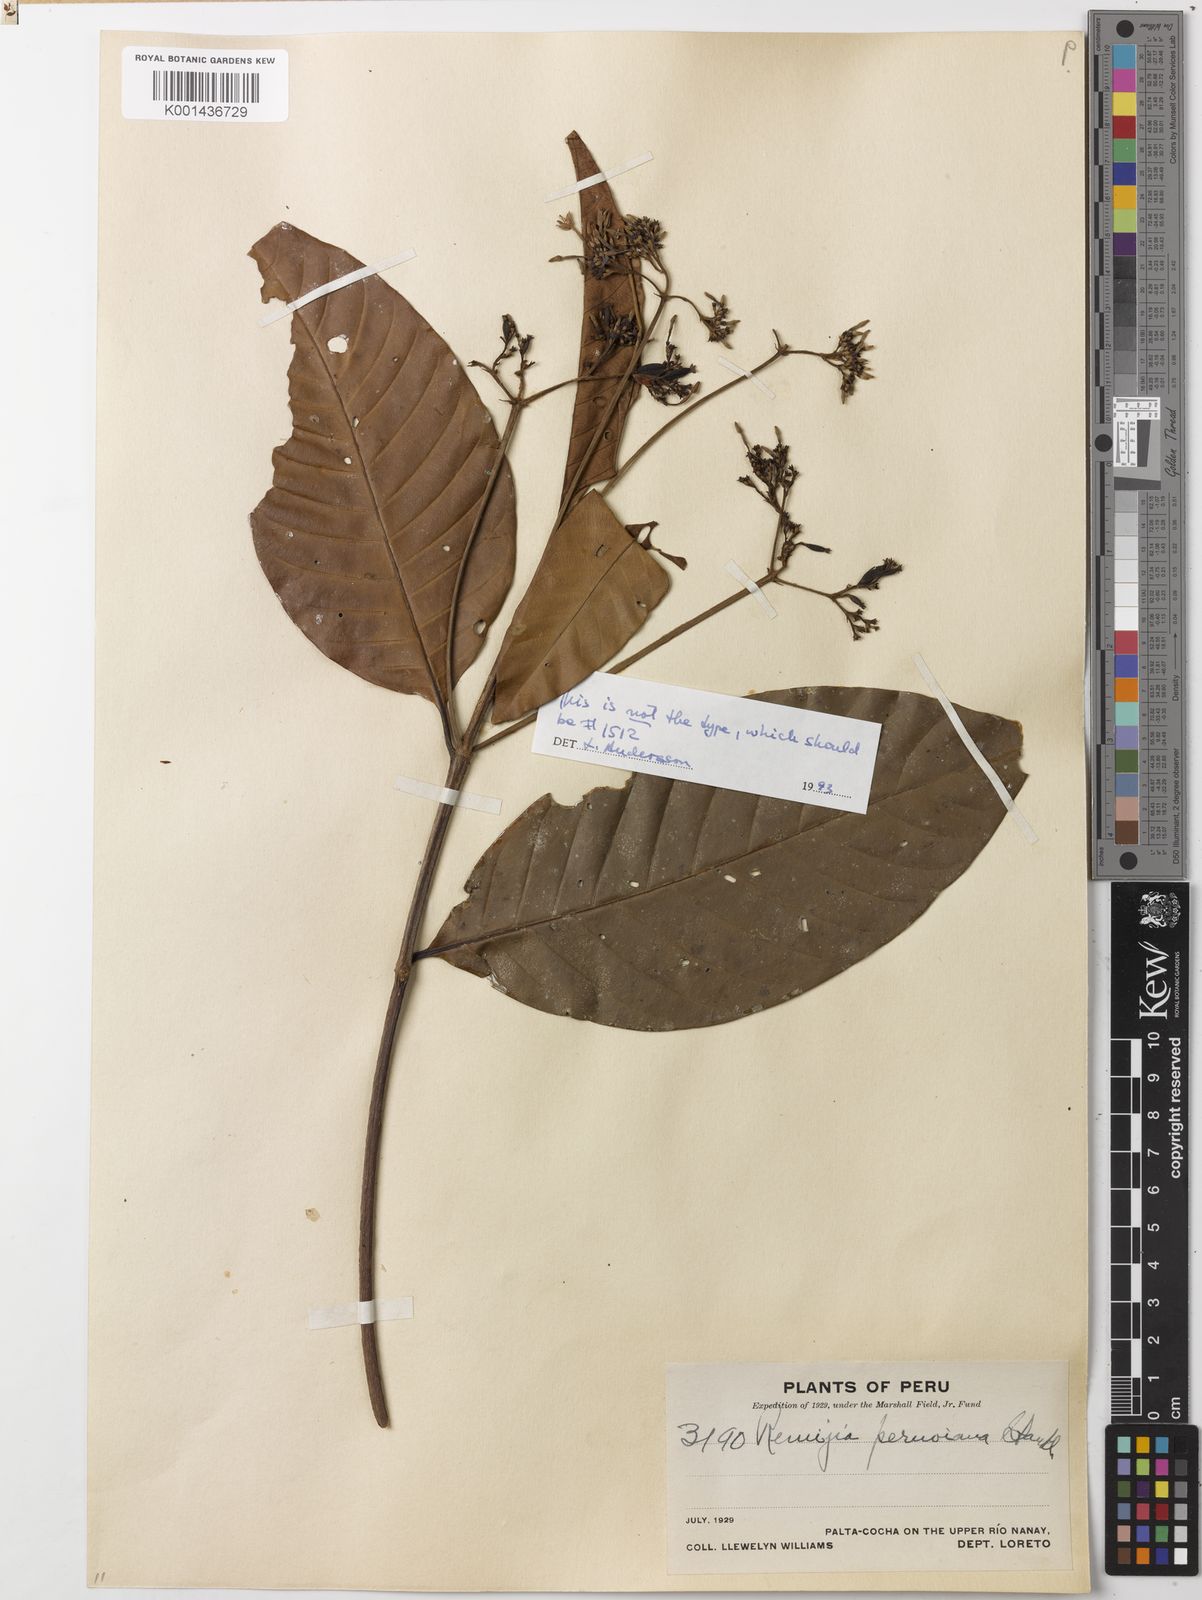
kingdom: Plantae
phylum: Tracheophyta
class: Magnoliopsida
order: Gentianales
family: Rubiaceae
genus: Ciliosemina
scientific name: Ciliosemina pedunculata
